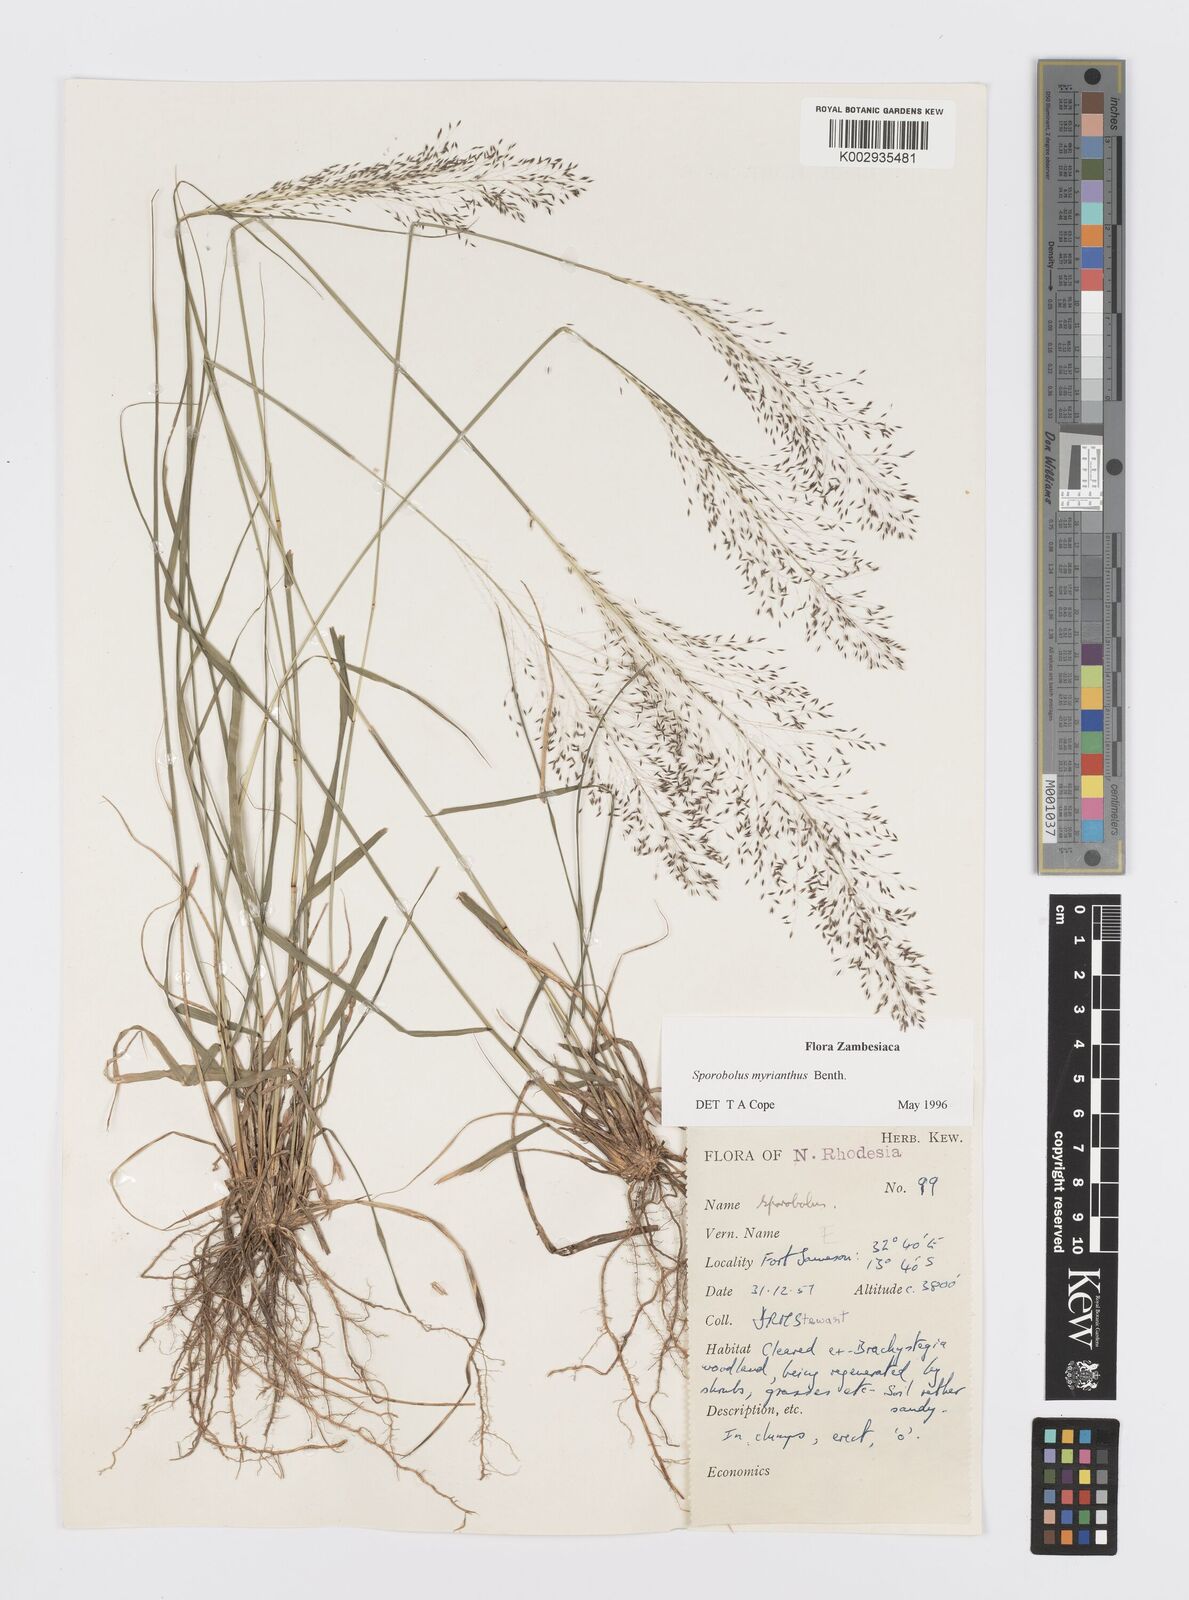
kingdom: Plantae
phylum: Tracheophyta
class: Liliopsida
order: Poales
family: Poaceae
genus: Sporobolus
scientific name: Sporobolus myrianthus
